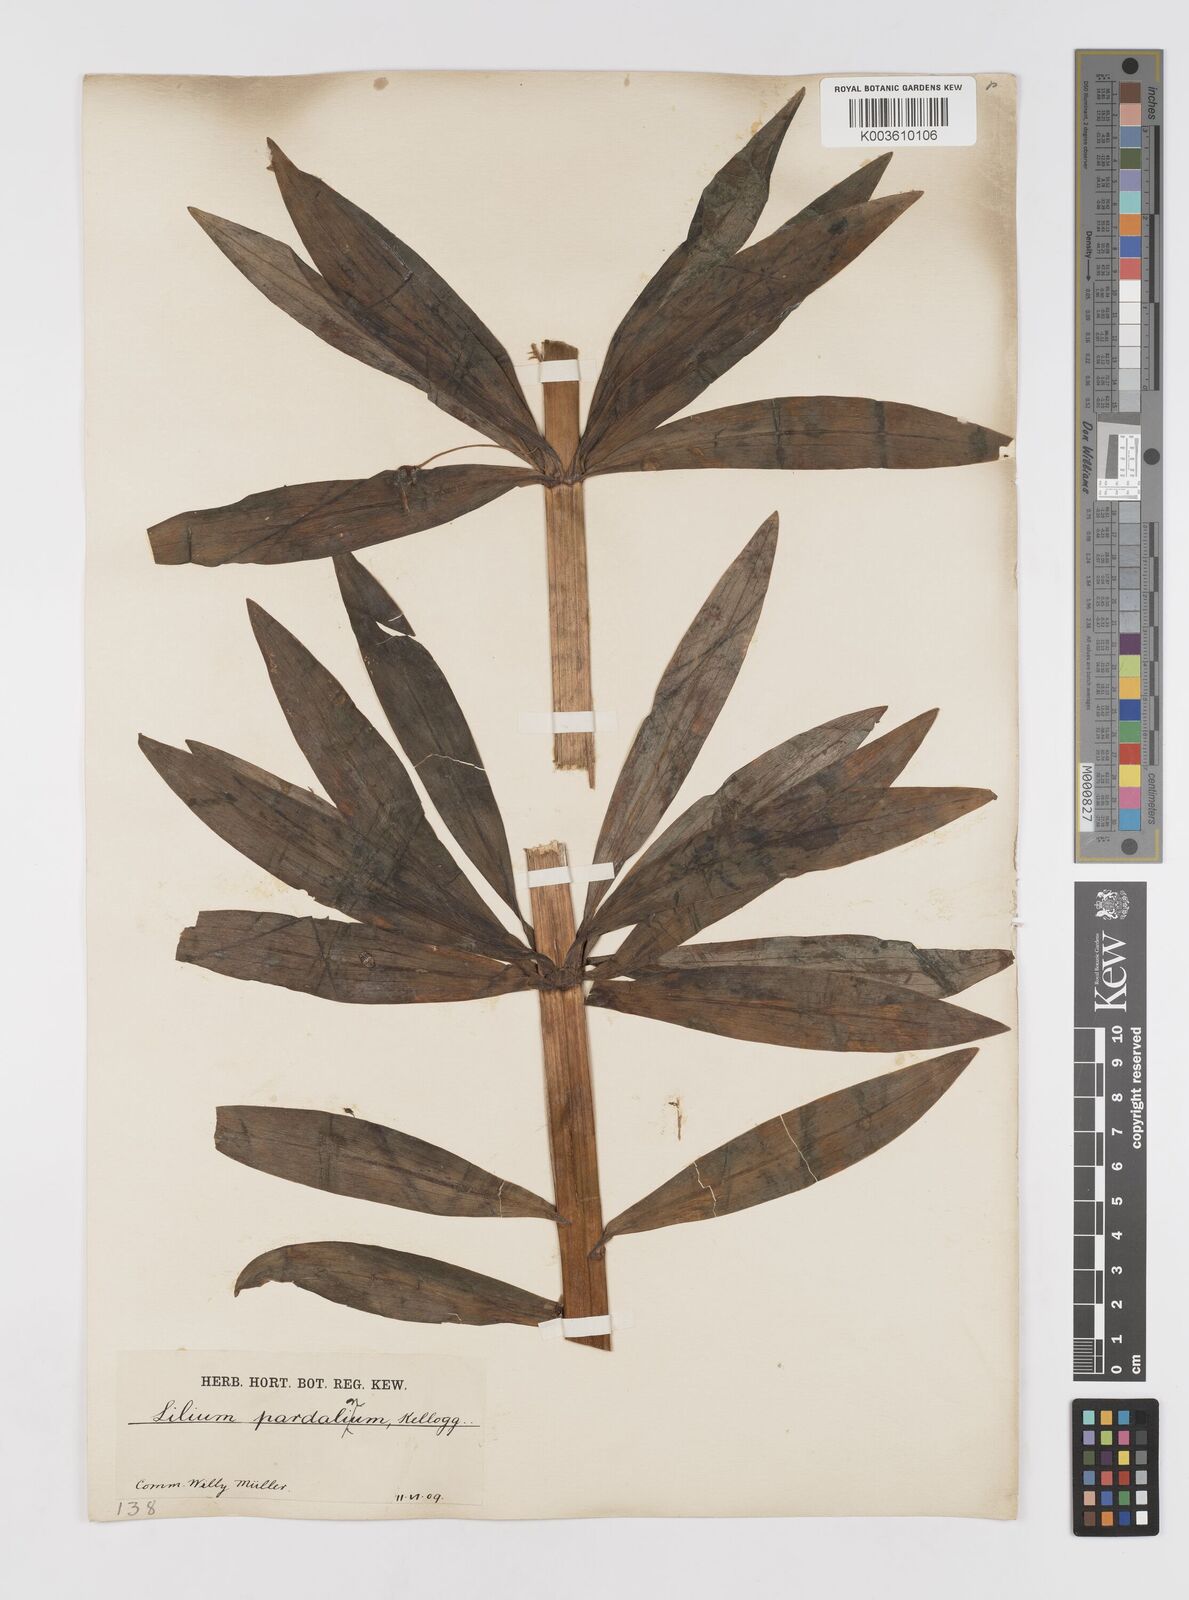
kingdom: Plantae
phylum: Tracheophyta
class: Liliopsida
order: Liliales
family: Liliaceae
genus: Lilium
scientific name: Lilium pardalinum
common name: Panther lily
